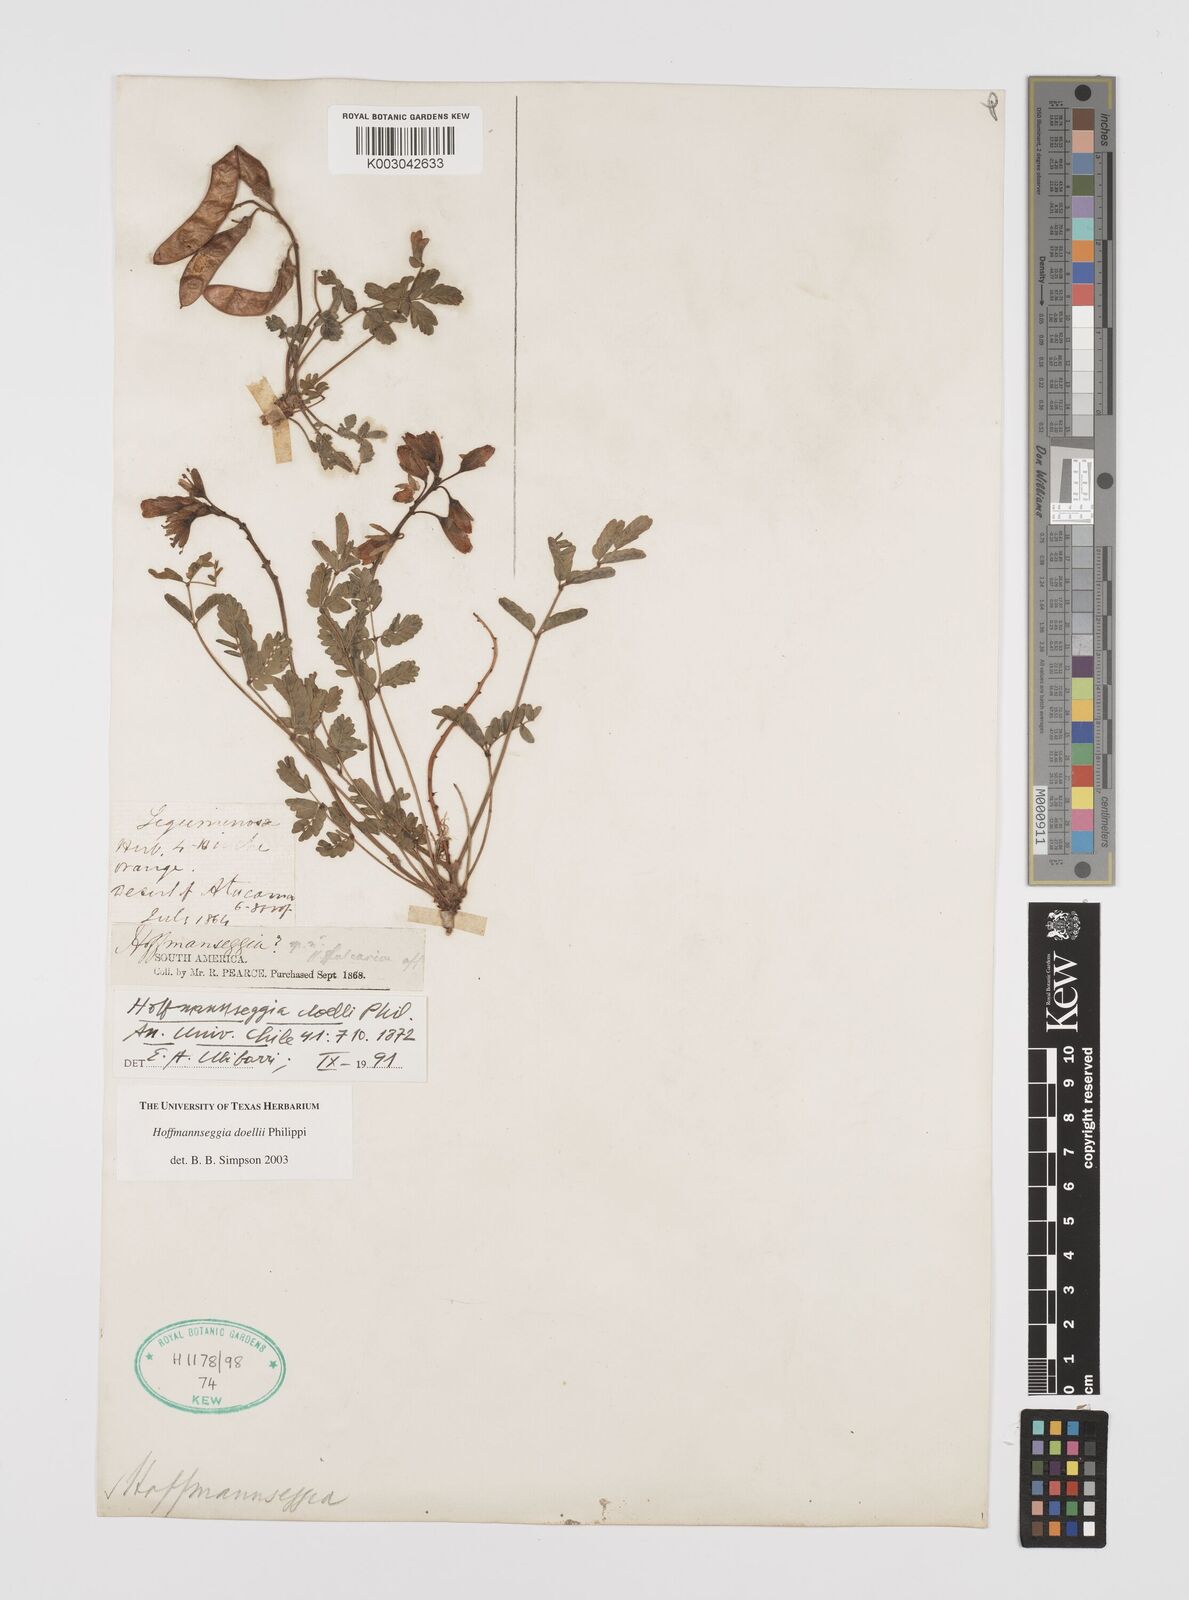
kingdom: Plantae
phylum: Tracheophyta
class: Magnoliopsida
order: Fabales
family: Fabaceae
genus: Hoffmannseggia
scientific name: Hoffmannseggia doellii
